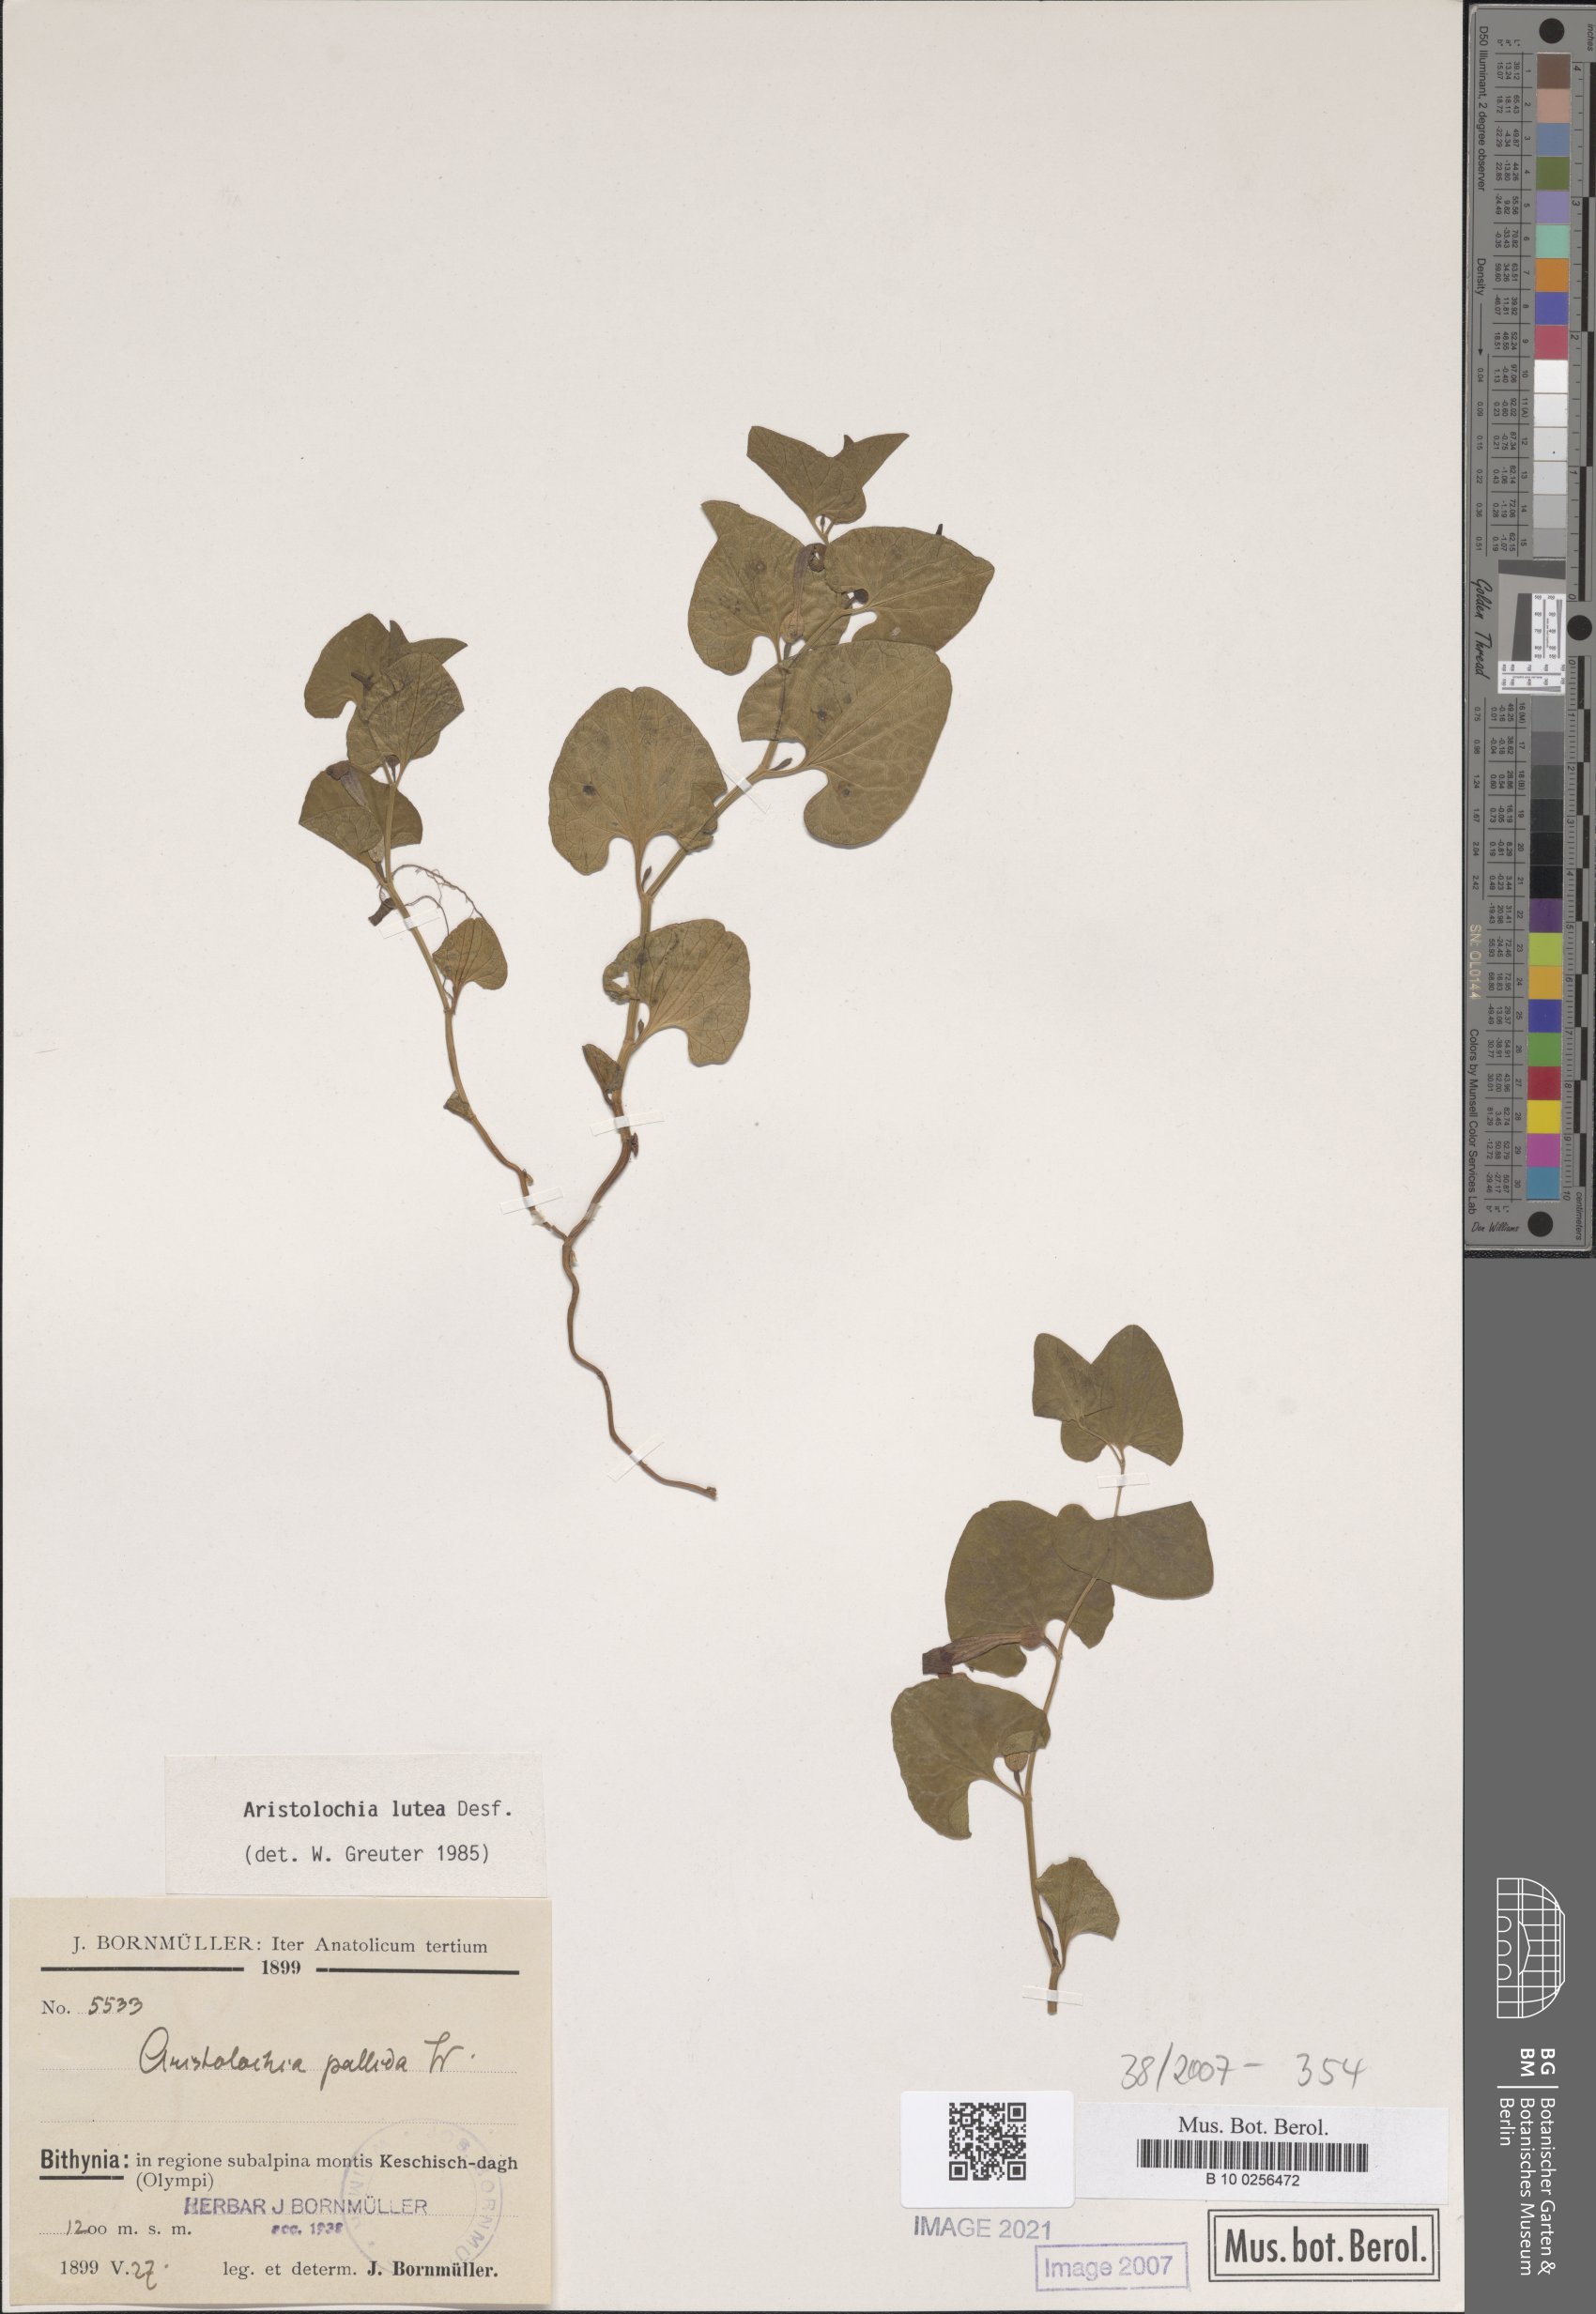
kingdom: Plantae
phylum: Tracheophyta
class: Magnoliopsida
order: Piperales
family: Aristolochiaceae
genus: Aristolochia
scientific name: Aristolochia lutea
